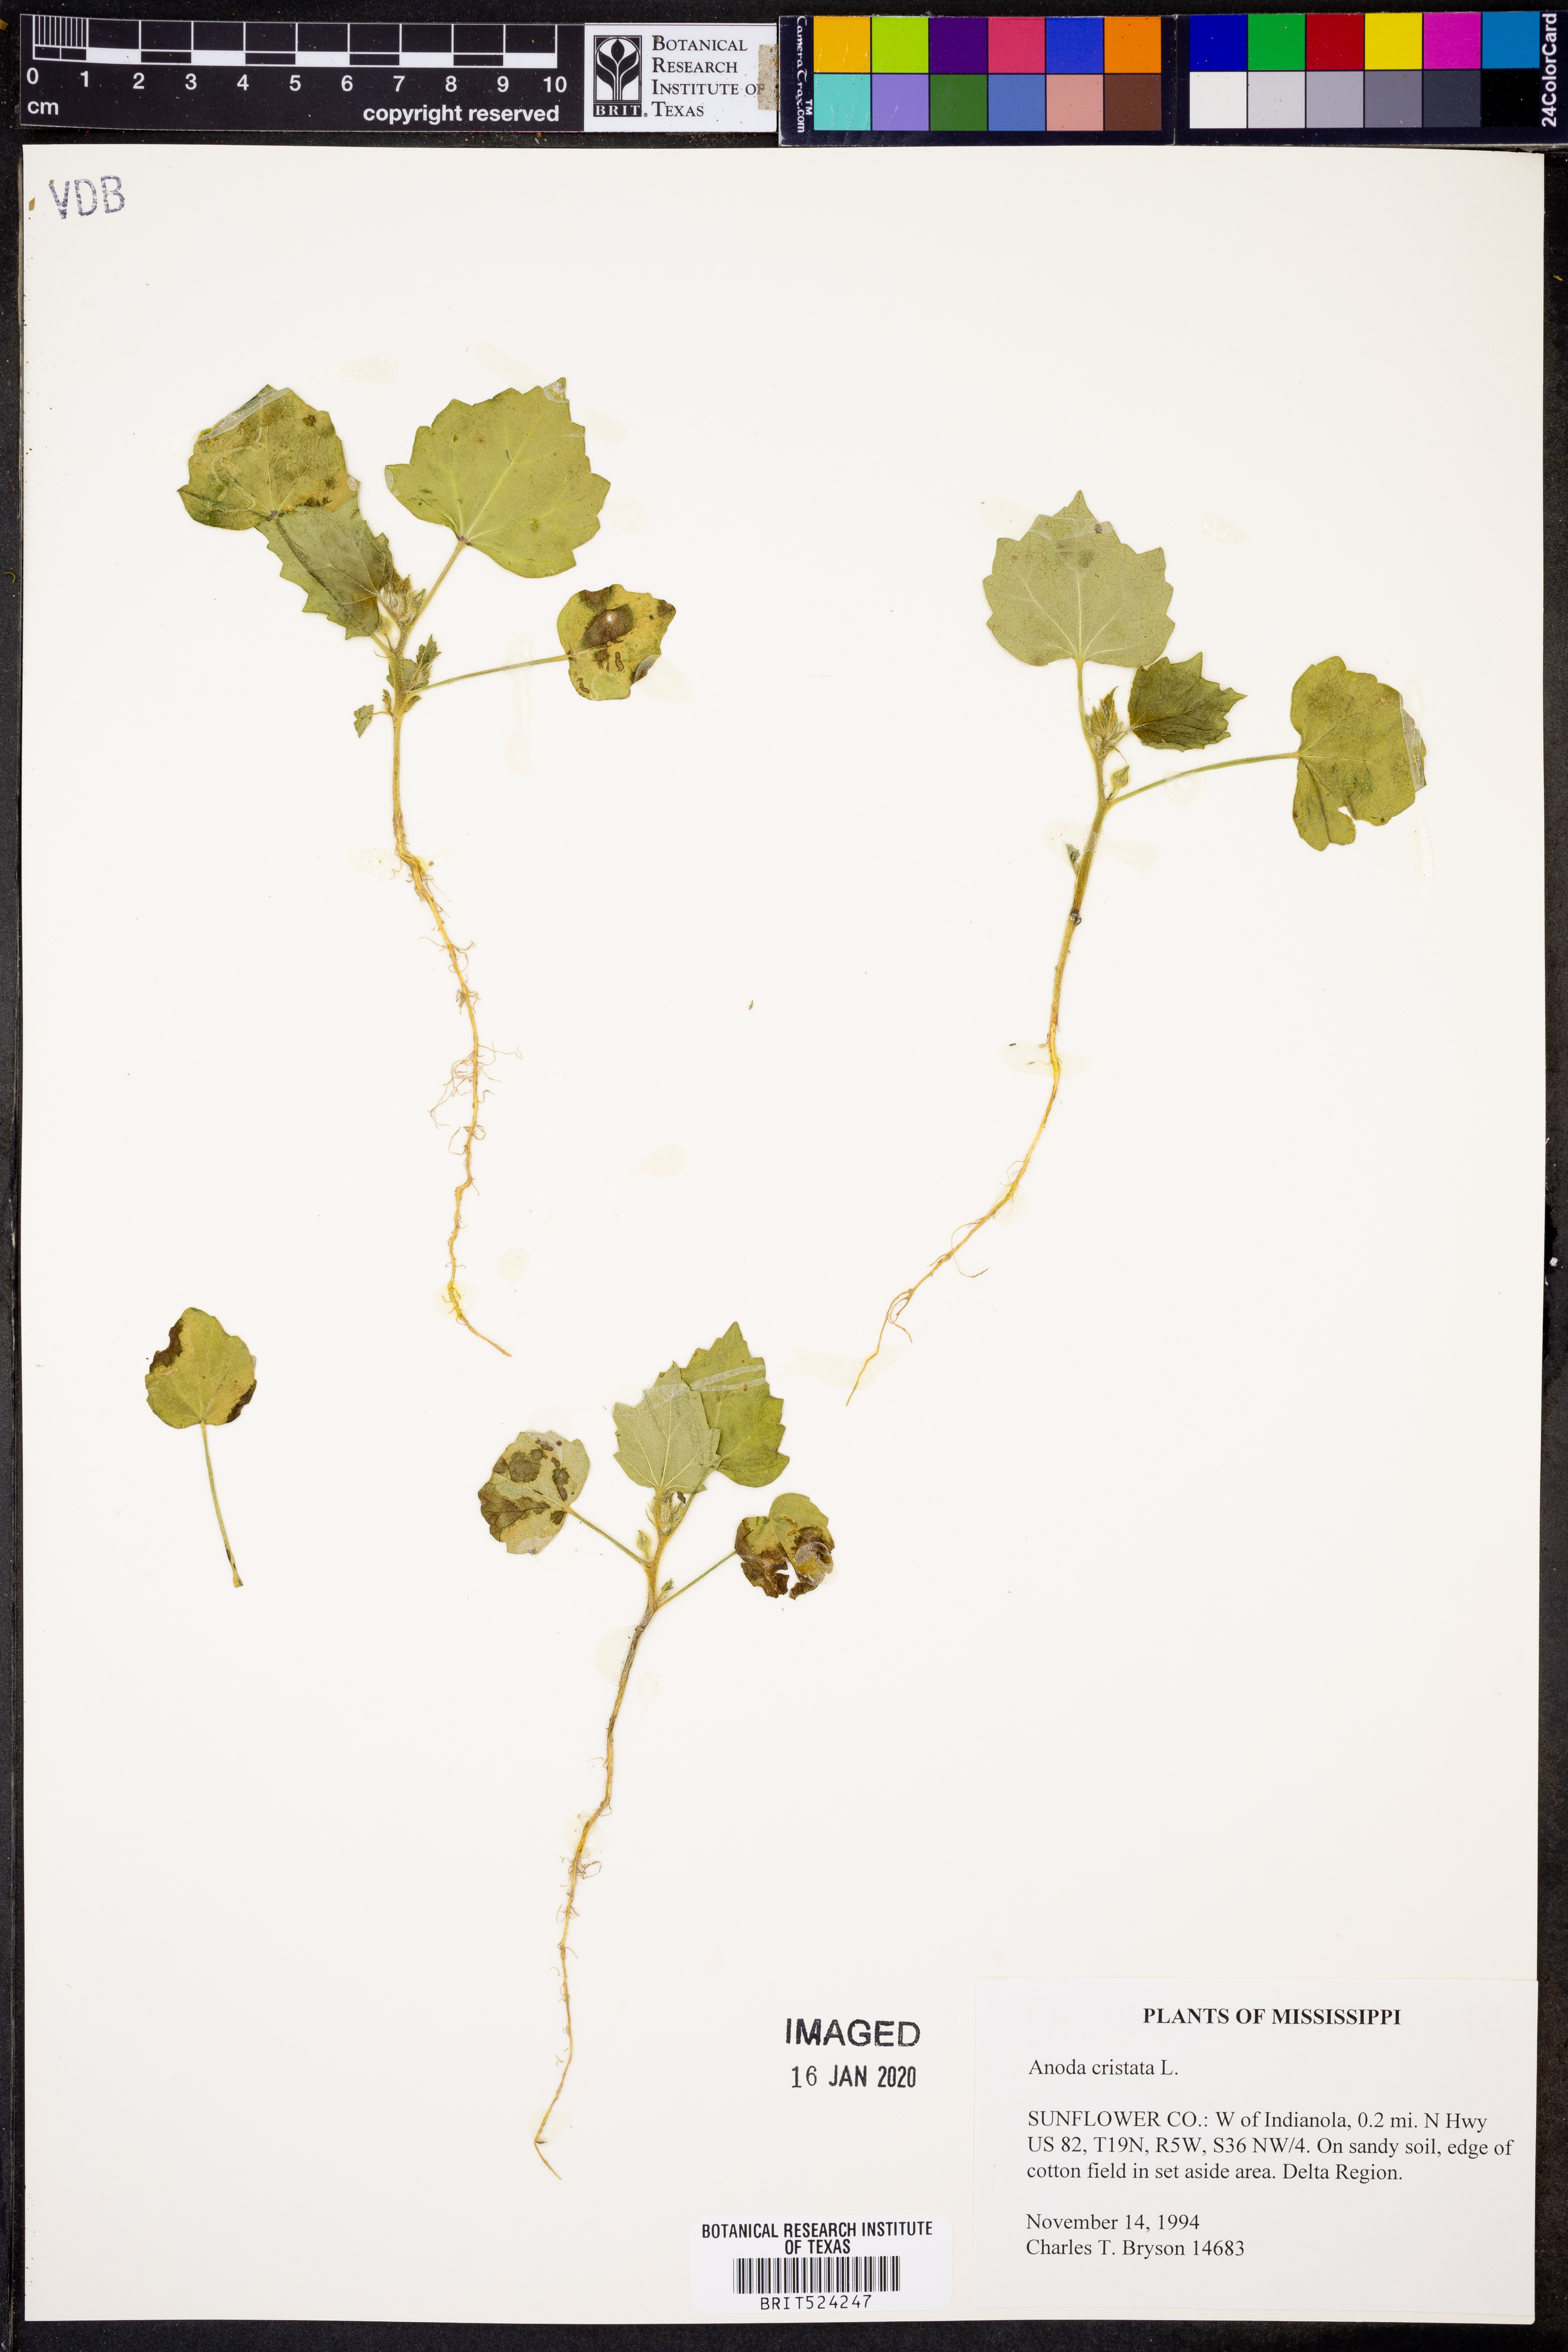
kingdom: Plantae
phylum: Tracheophyta
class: Magnoliopsida
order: Malvales
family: Malvaceae
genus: Anoda
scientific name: Anoda cristata
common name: Spurred anoda
